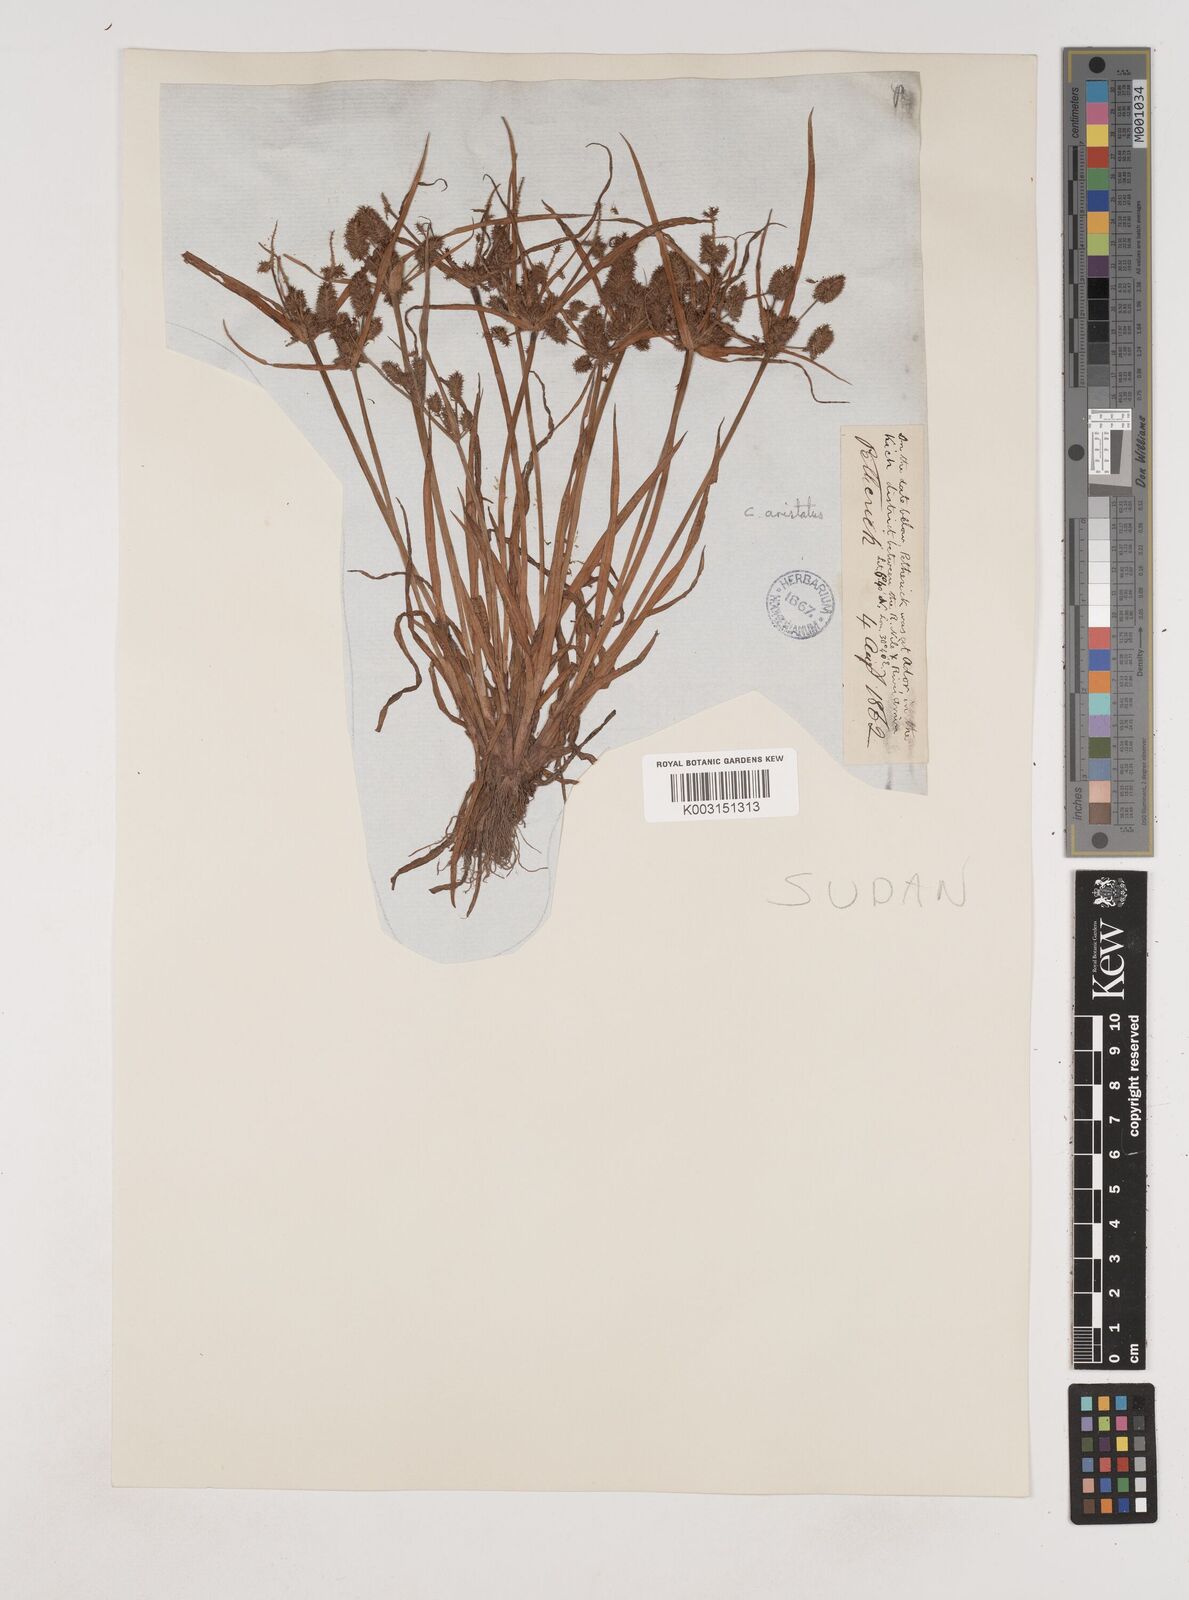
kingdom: Plantae
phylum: Tracheophyta
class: Liliopsida
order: Poales
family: Cyperaceae
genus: Cyperus
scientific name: Cyperus squarrosus
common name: Awned cyperus
